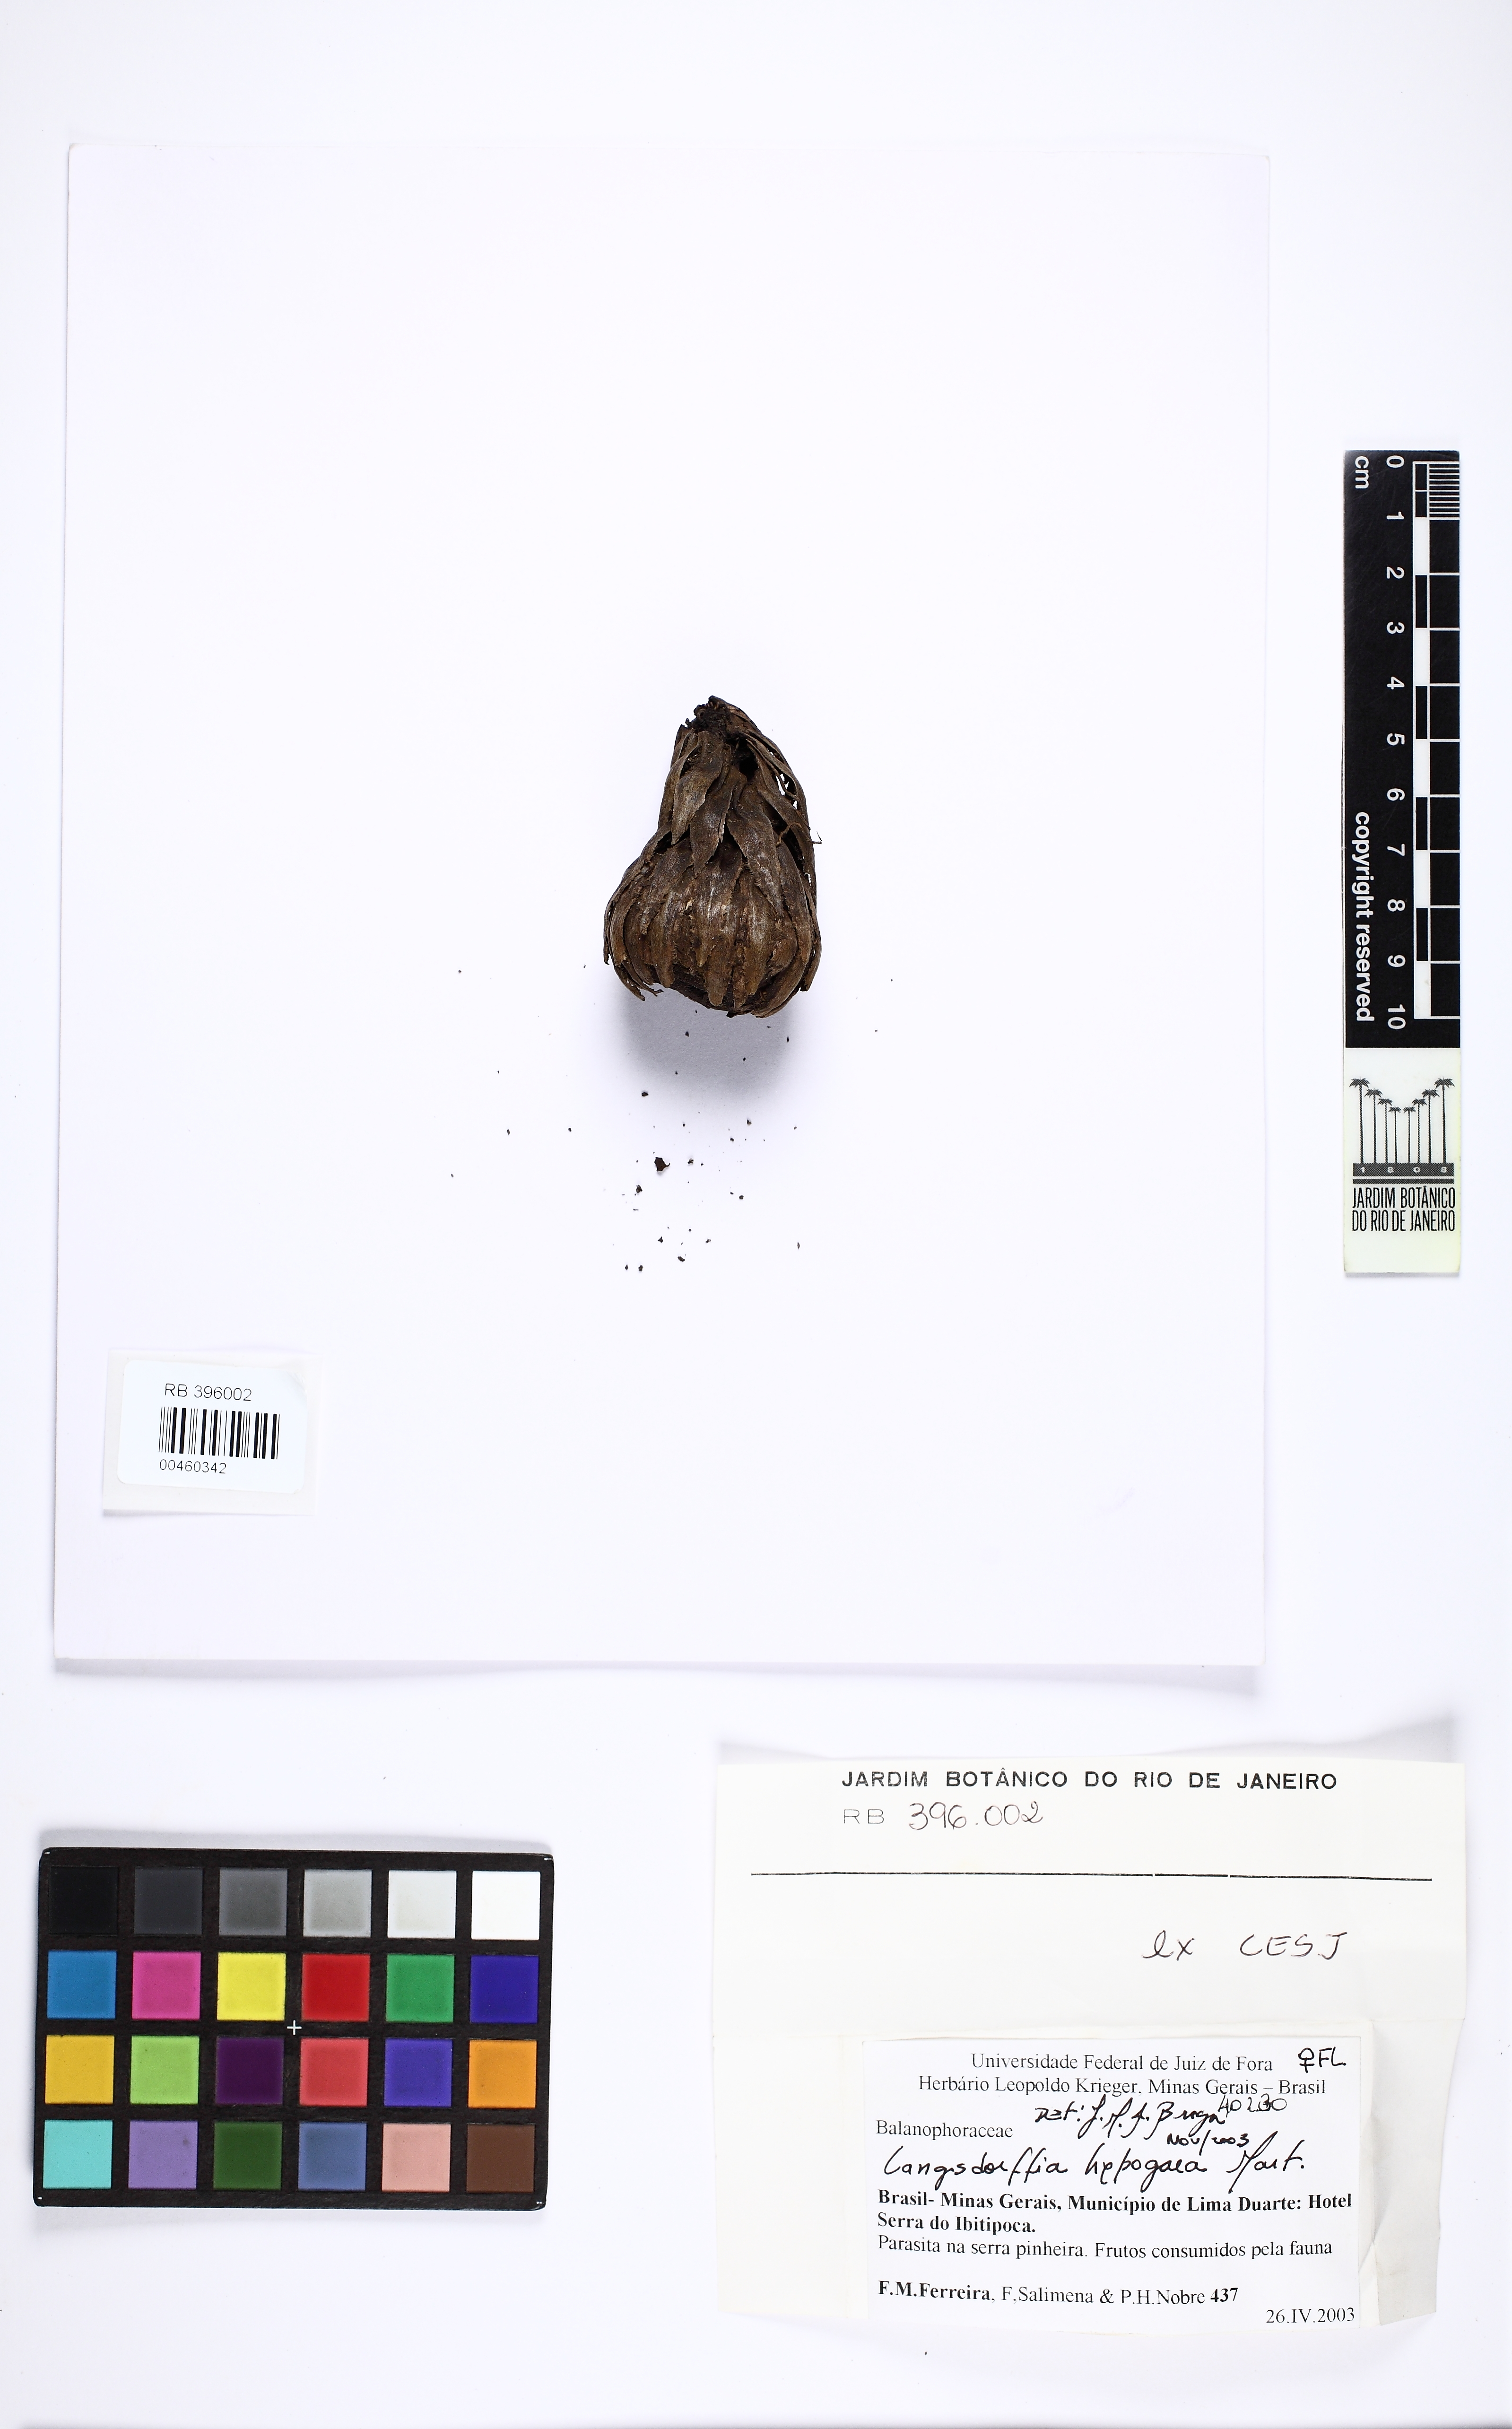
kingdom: Plantae
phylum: Tracheophyta
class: Magnoliopsida
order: Santalales
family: Balanophoraceae
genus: Langsdorffia
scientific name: Langsdorffia hypogaea
